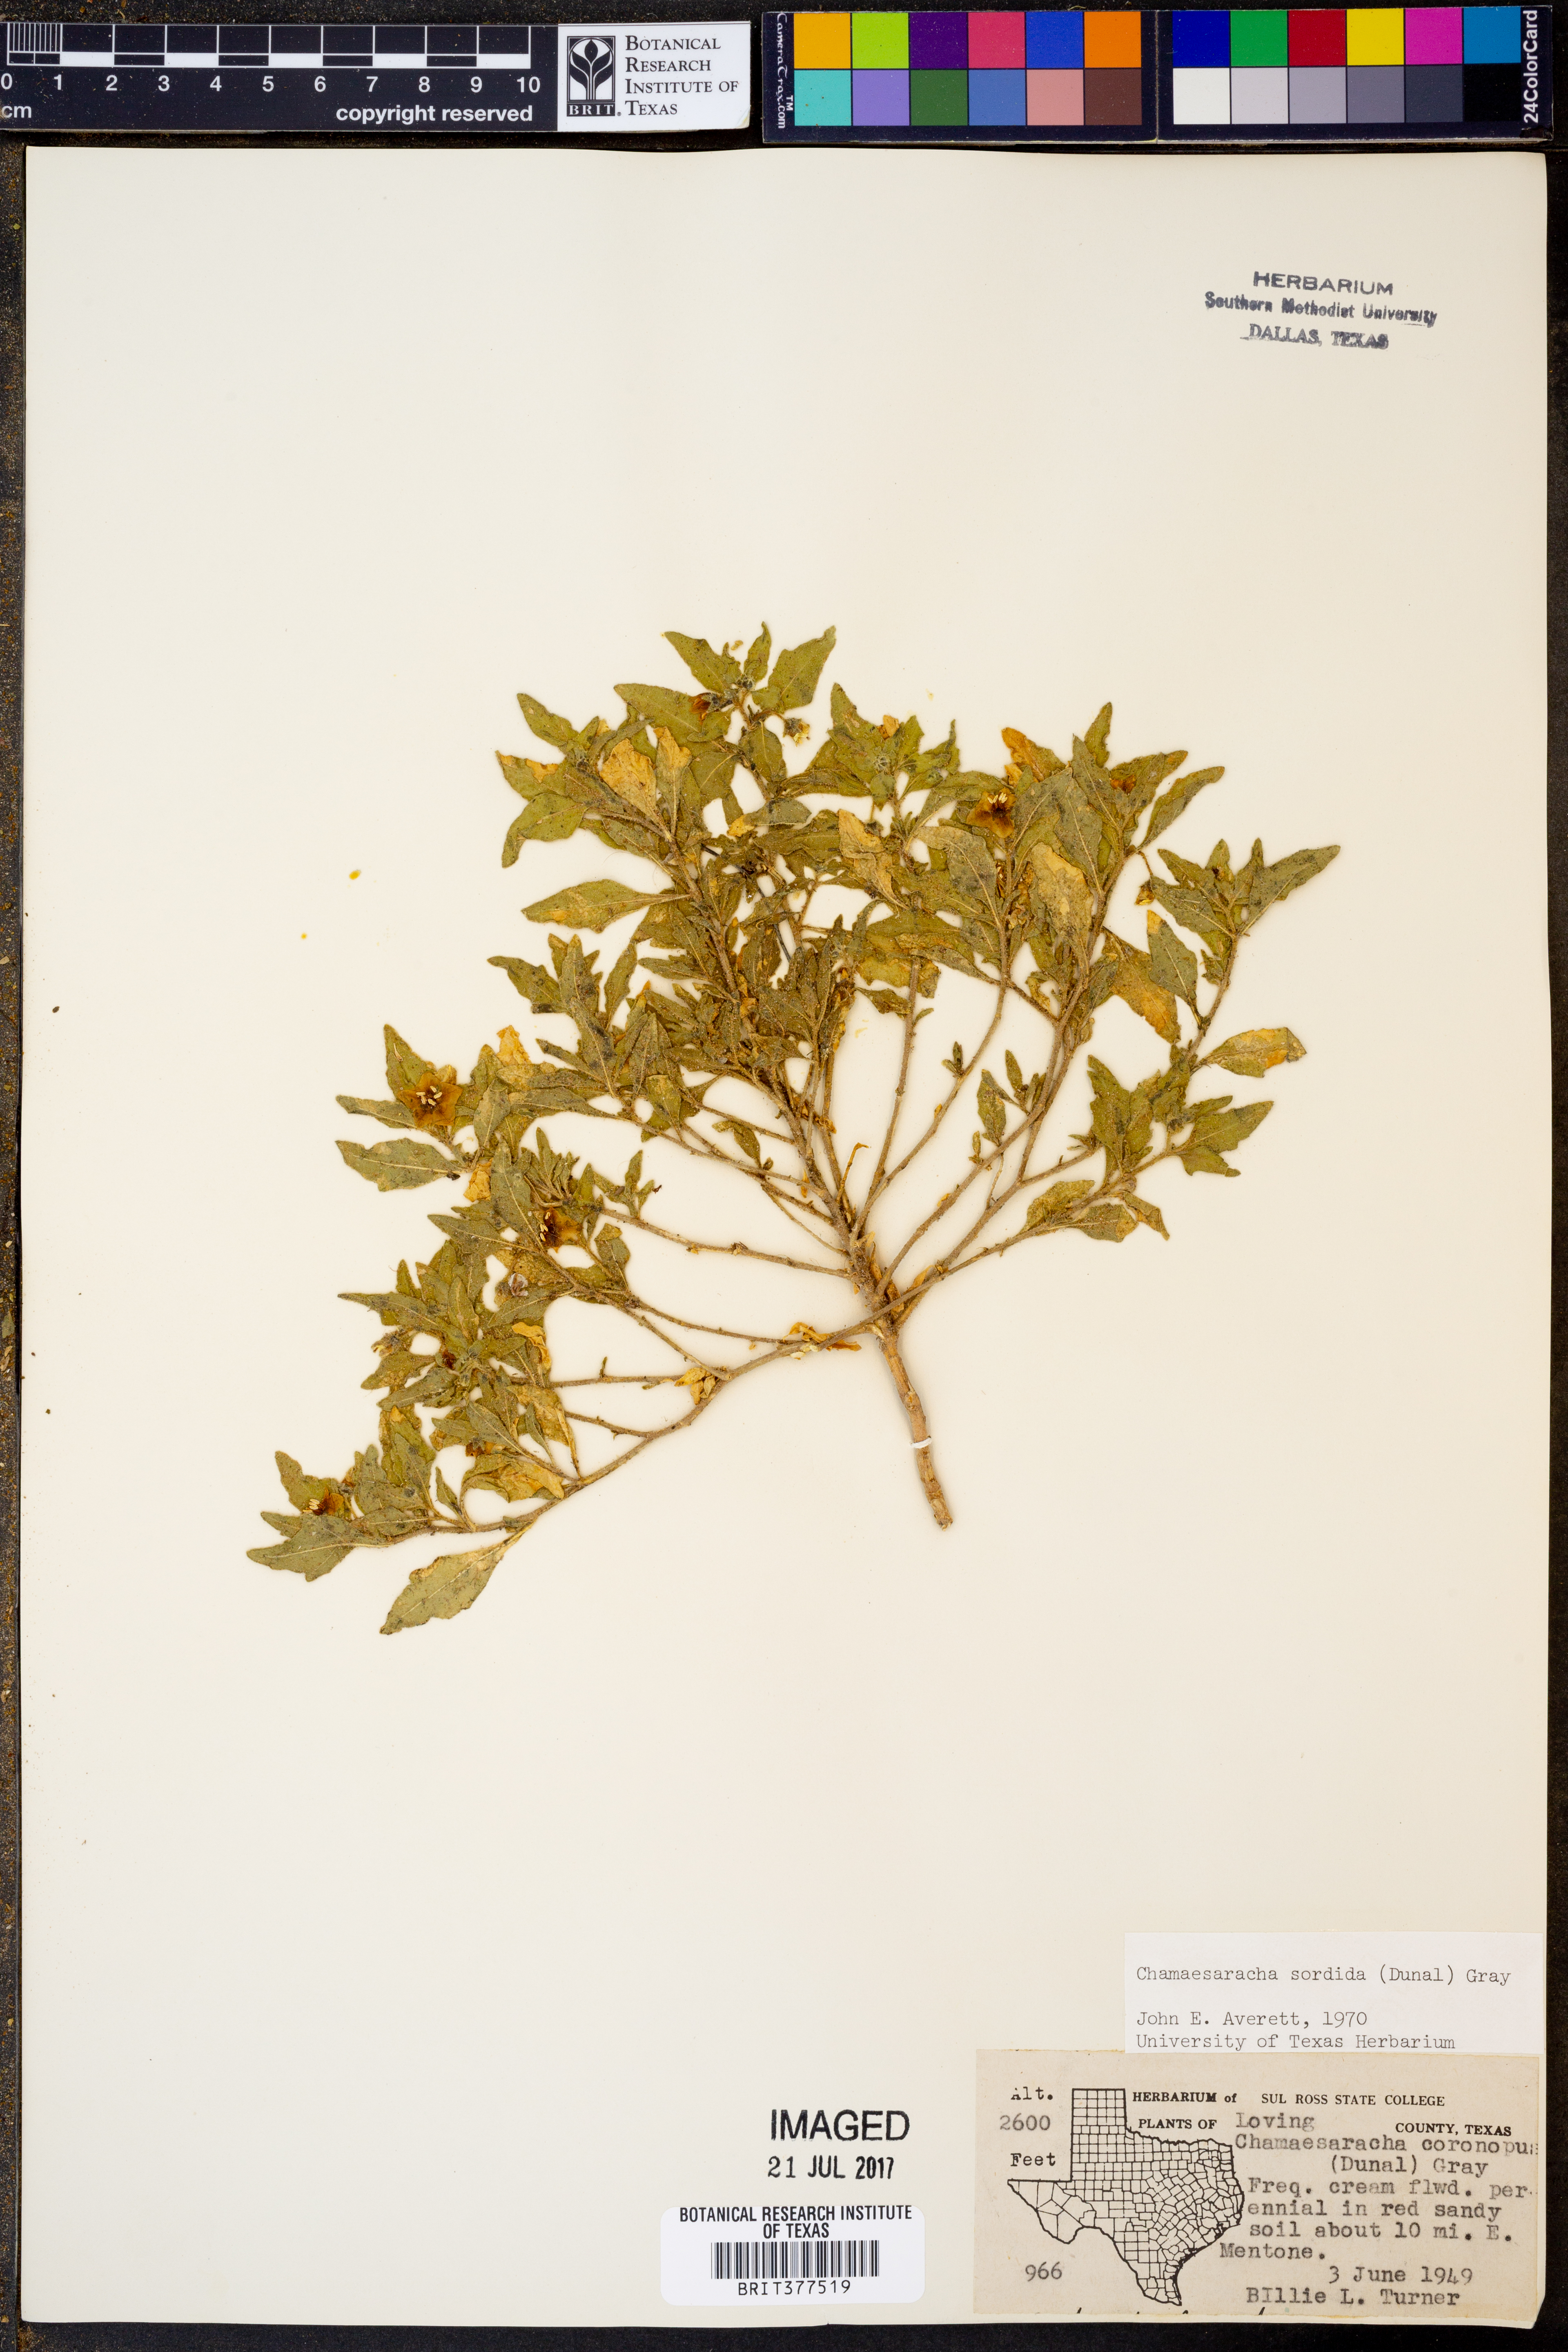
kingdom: Plantae
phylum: Tracheophyta
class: Magnoliopsida
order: Solanales
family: Solanaceae
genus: Chamaesaracha
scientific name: Chamaesaracha sordida
